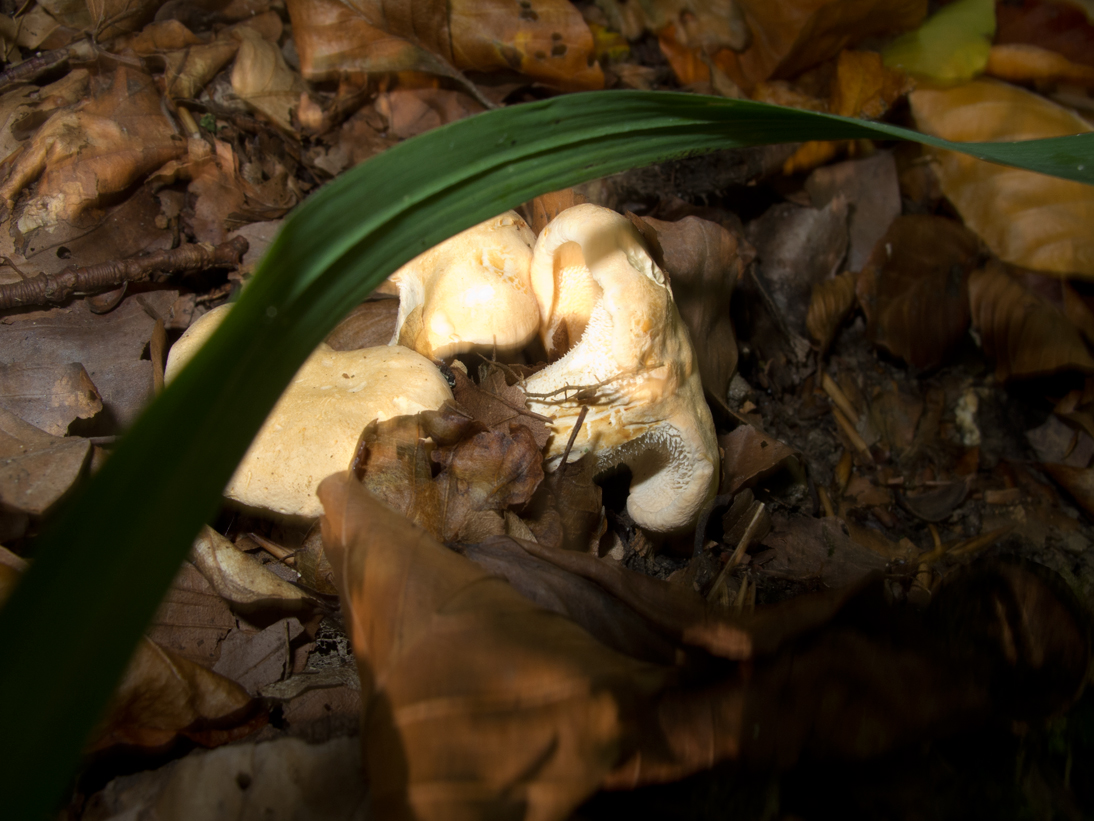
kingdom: Fungi
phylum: Basidiomycota
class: Agaricomycetes
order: Cantharellales
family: Hydnaceae
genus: Hydnum
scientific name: Hydnum repandum
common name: almindelig pigsvamp
